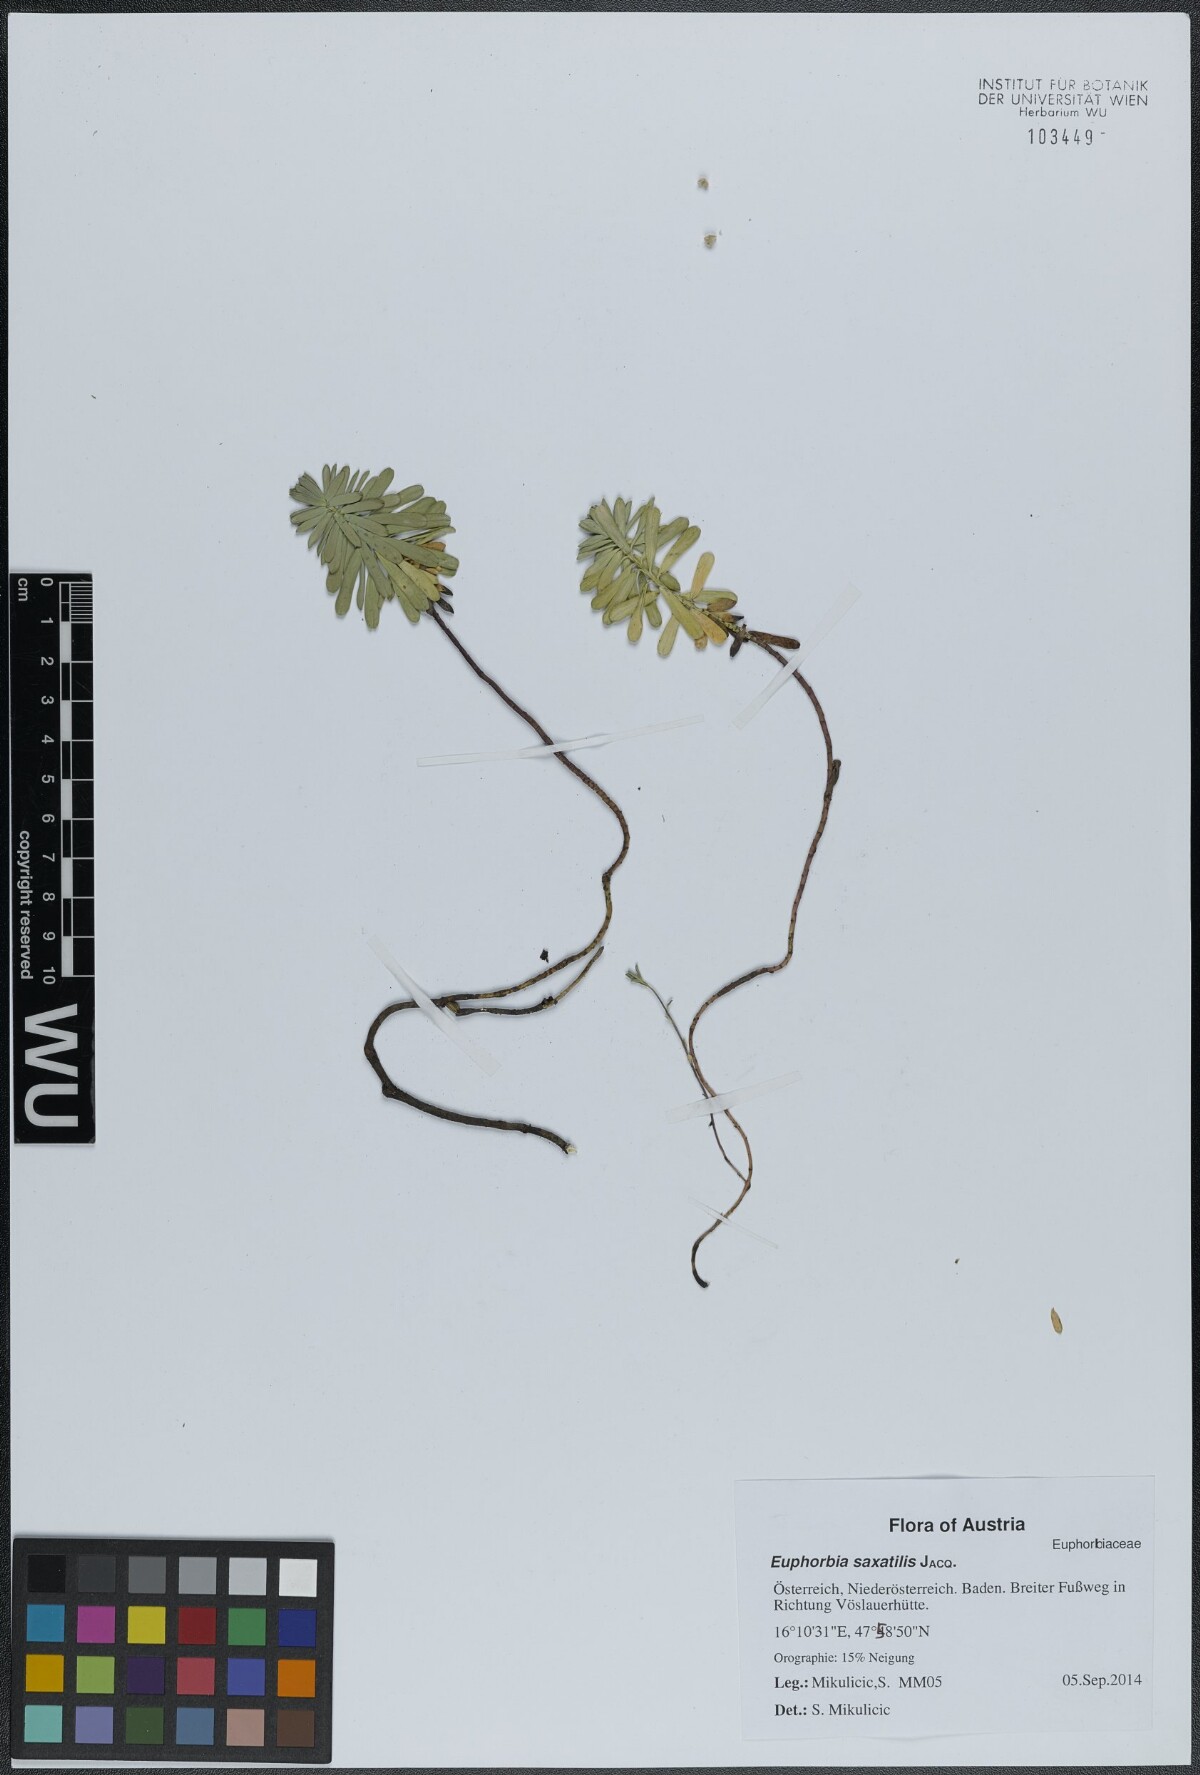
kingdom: Plantae
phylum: Tracheophyta
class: Magnoliopsida
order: Malpighiales
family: Euphorbiaceae
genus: Euphorbia
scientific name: Euphorbia saxatilis
